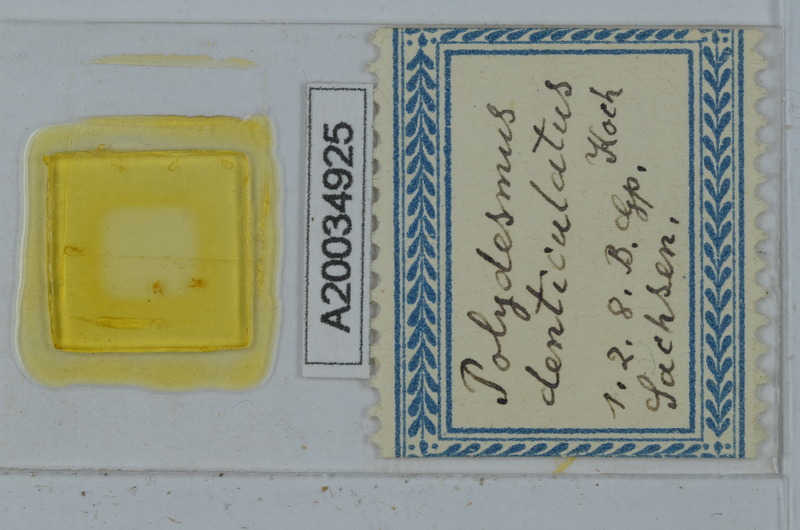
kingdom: Animalia
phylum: Arthropoda
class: Diplopoda
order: Polydesmida
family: Polydesmidae
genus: Polydesmus
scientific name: Polydesmus denticulatus
